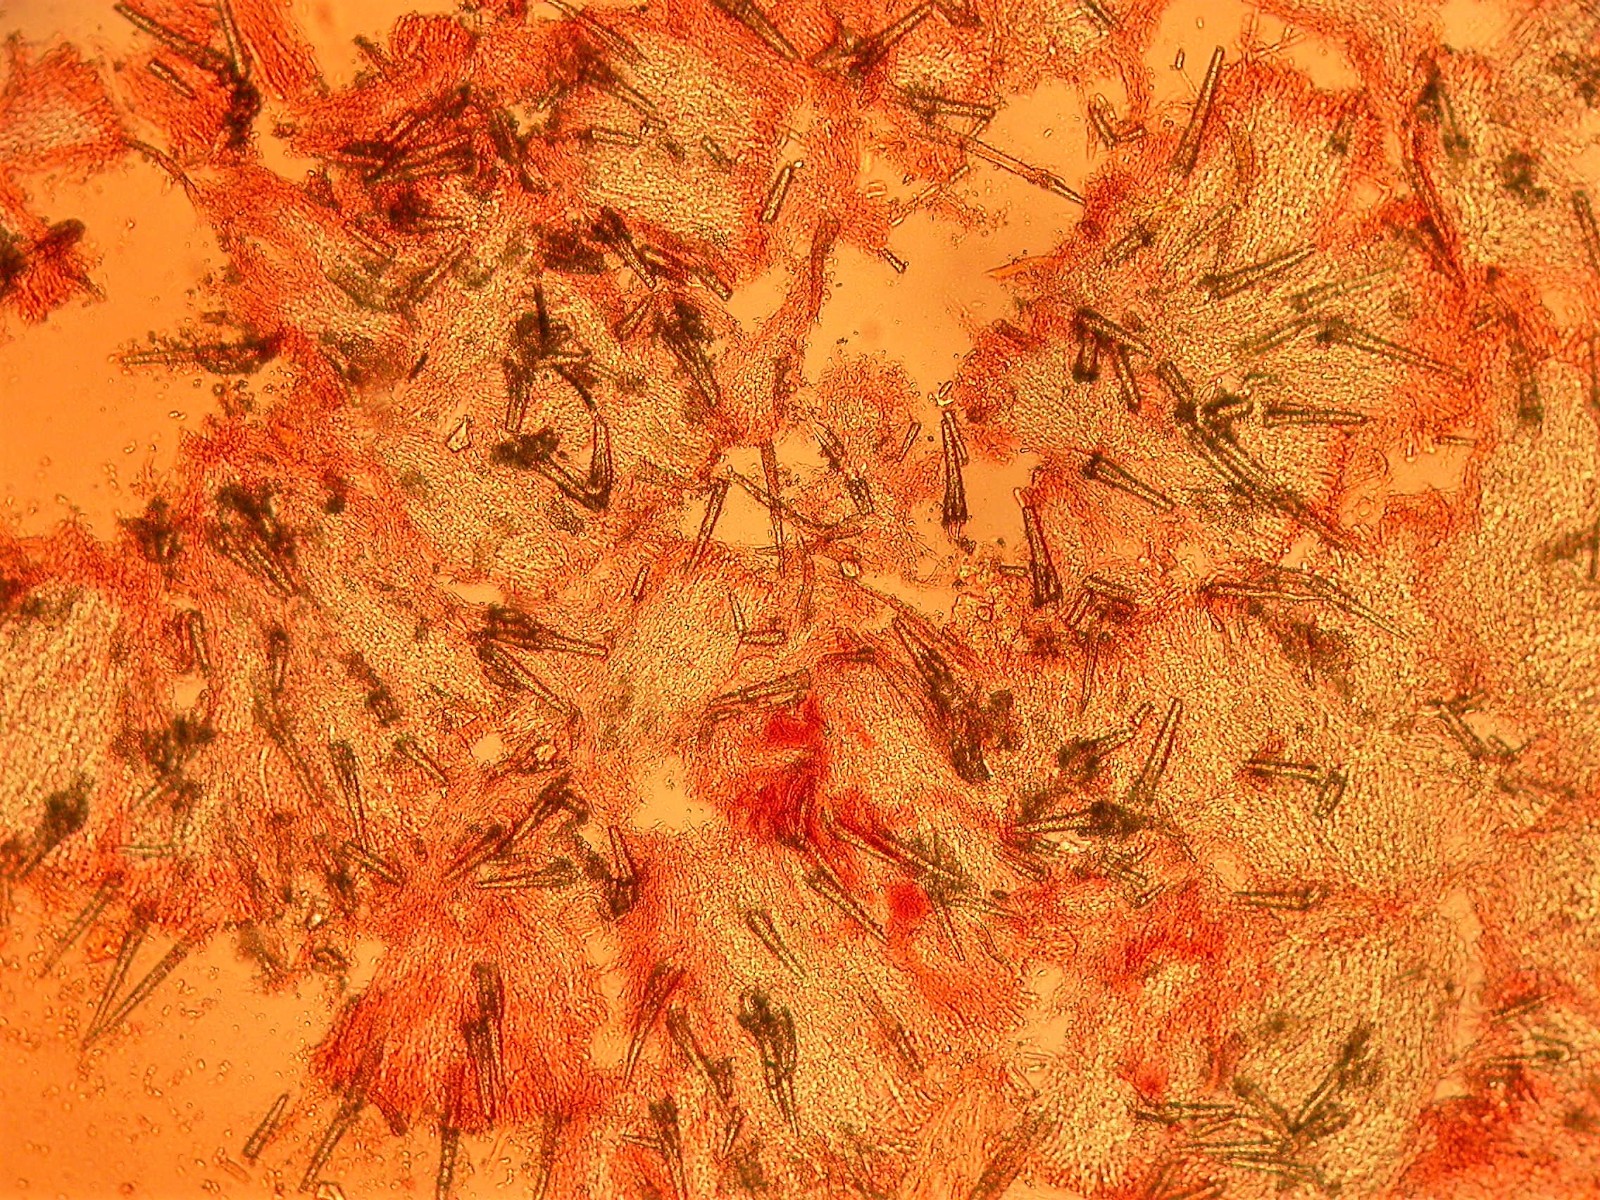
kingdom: Fungi
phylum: Basidiomycota
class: Agaricomycetes
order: Polyporales
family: Meruliaceae
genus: Scopuloides
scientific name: Scopuloides rimosa
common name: dughinde
